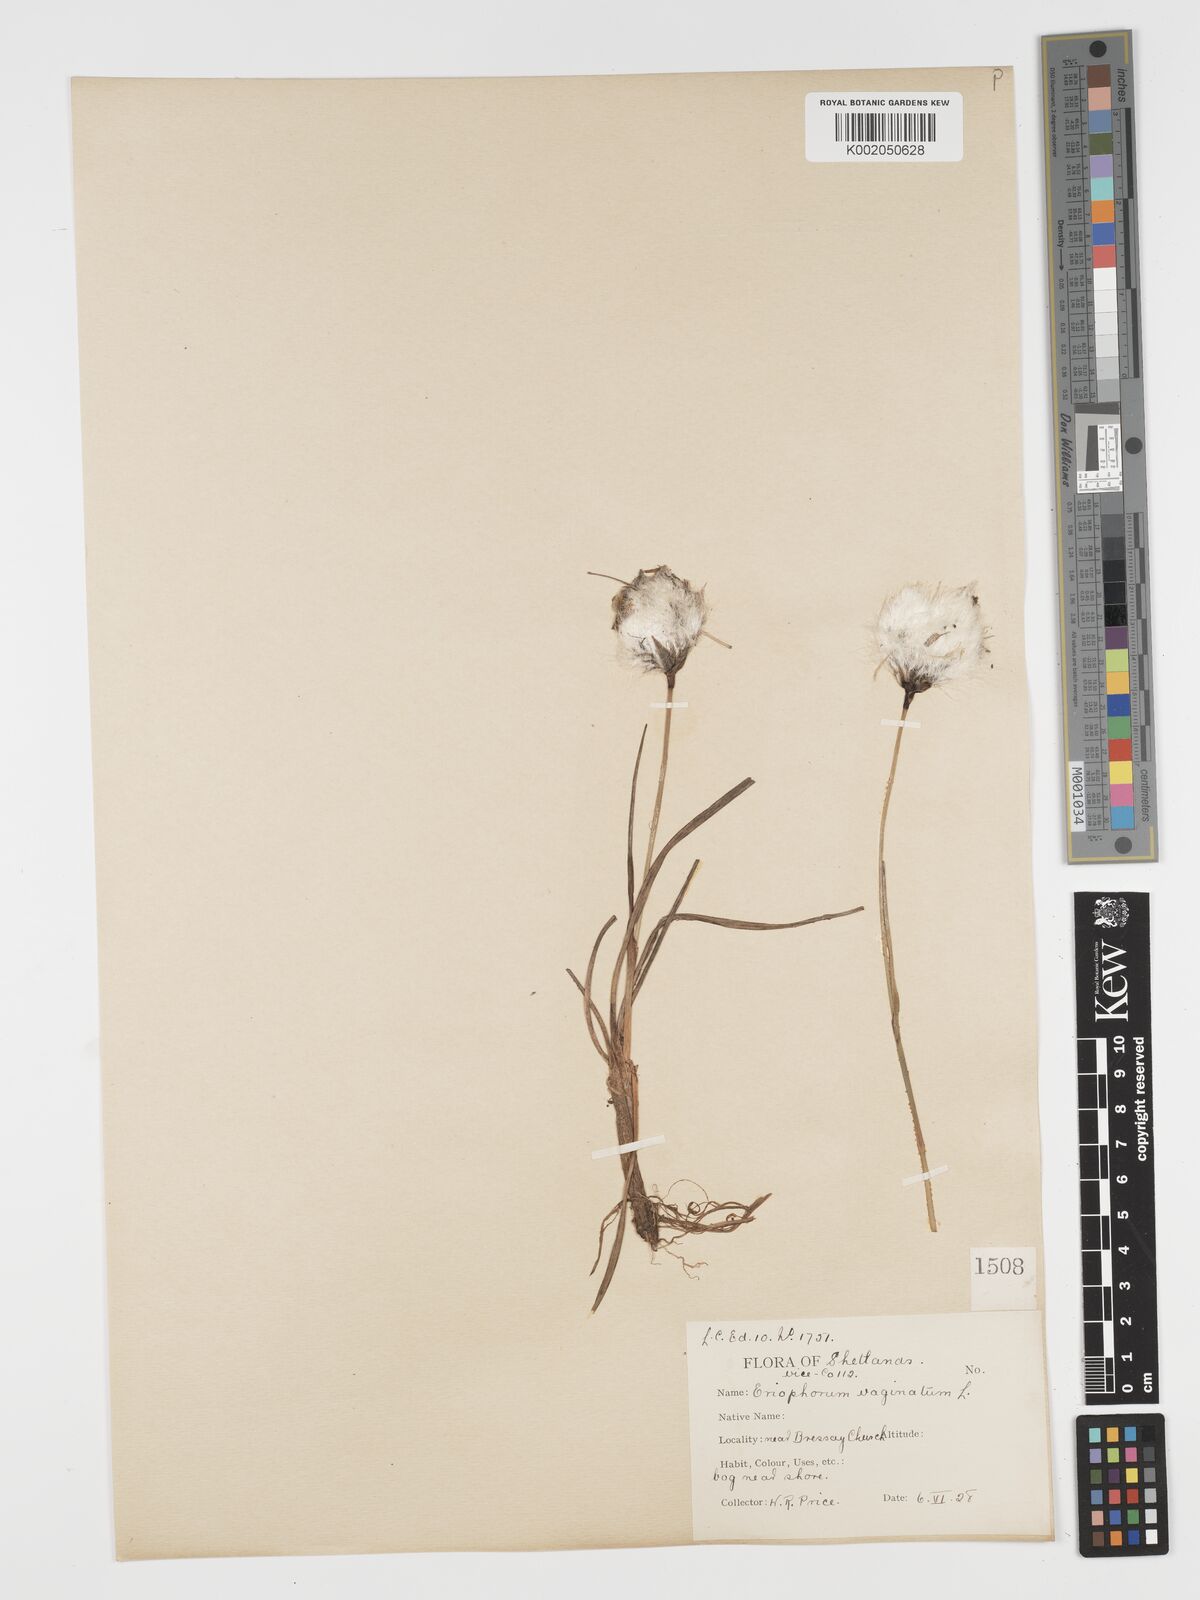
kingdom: Plantae
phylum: Tracheophyta
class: Liliopsida
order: Poales
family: Cyperaceae
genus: Eriophorum
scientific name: Eriophorum vaginatum
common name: Hare's-tail cottongrass
